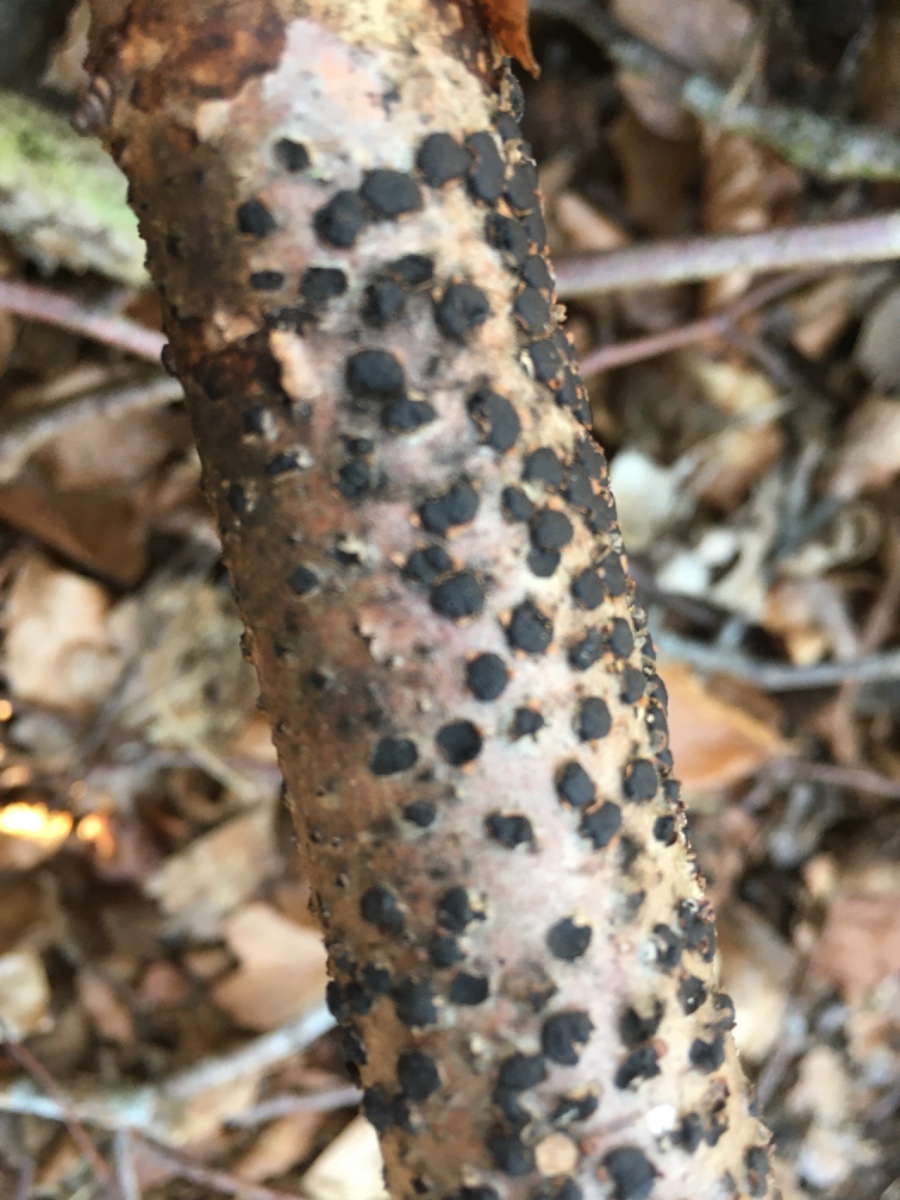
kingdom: Fungi
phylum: Ascomycota
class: Sordariomycetes
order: Xylariales
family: Diatrypaceae
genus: Diatrype
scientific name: Diatrype disciformis
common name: kant-kulskorpe
